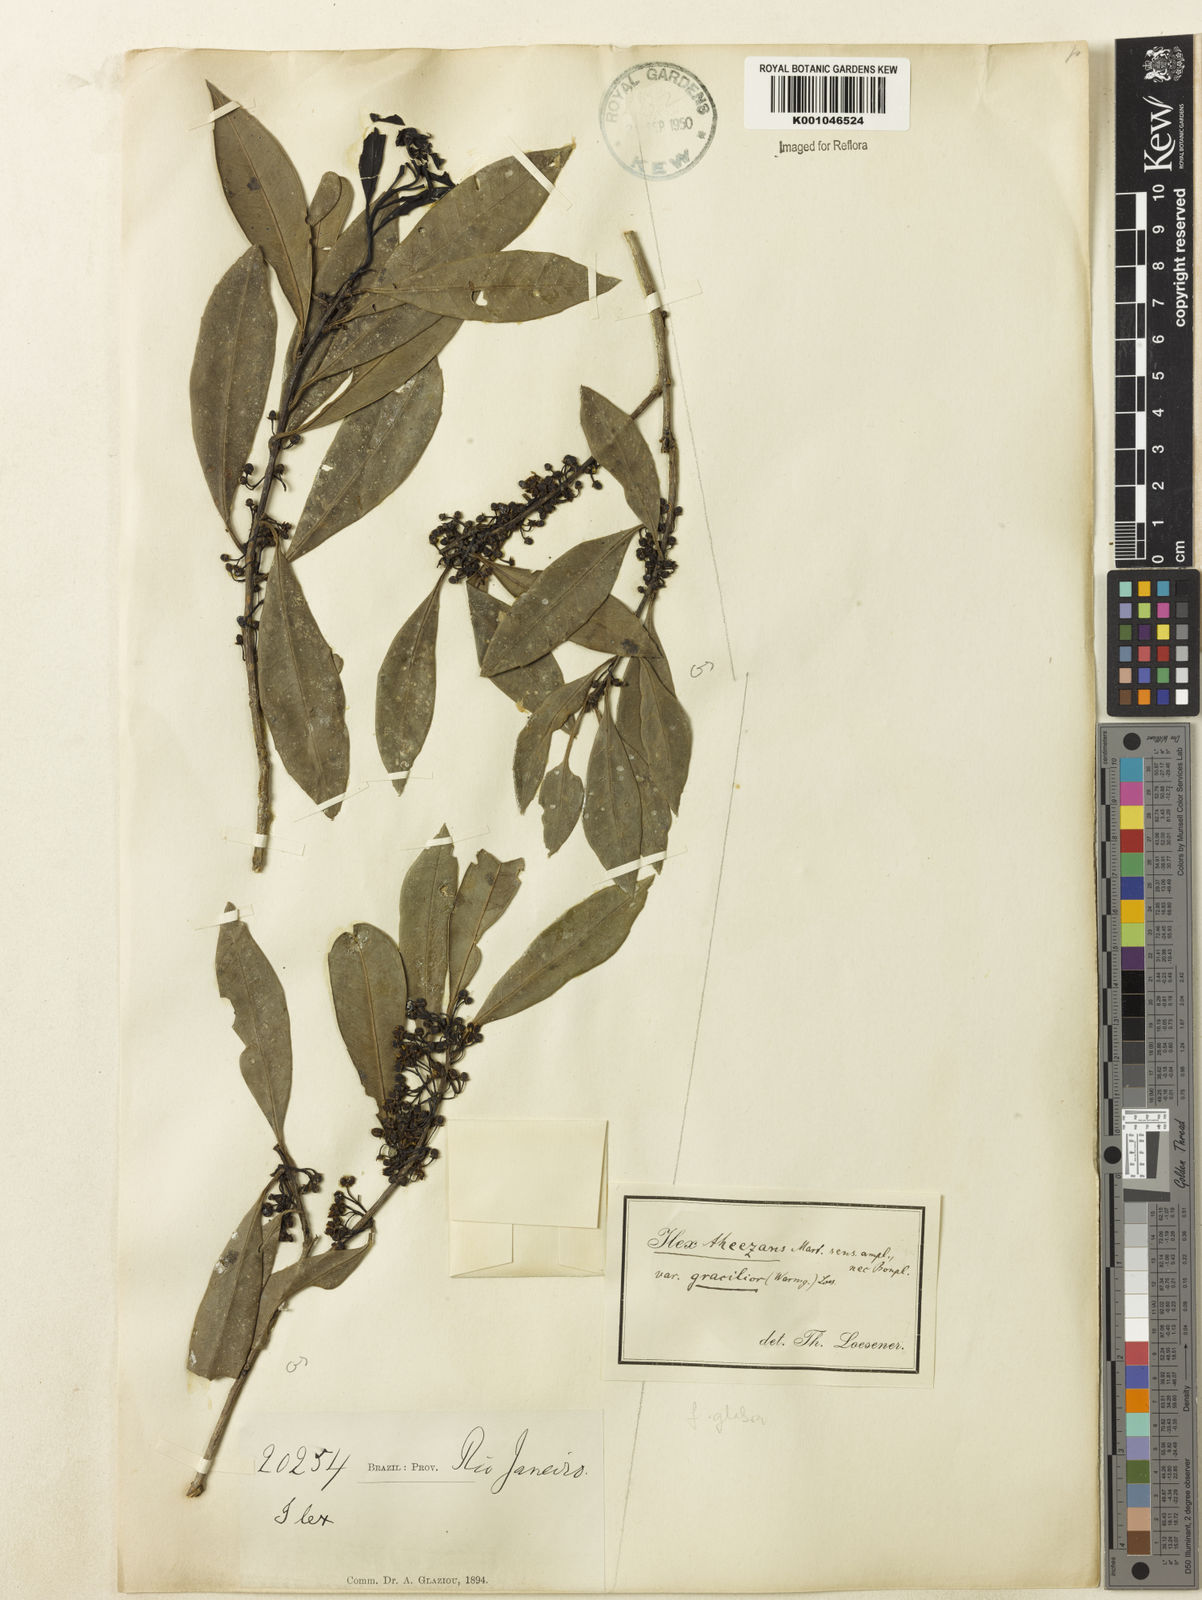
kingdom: Plantae
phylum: Tracheophyta
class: Magnoliopsida
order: Aquifoliales
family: Aquifoliaceae
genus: Ilex
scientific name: Ilex theezans
